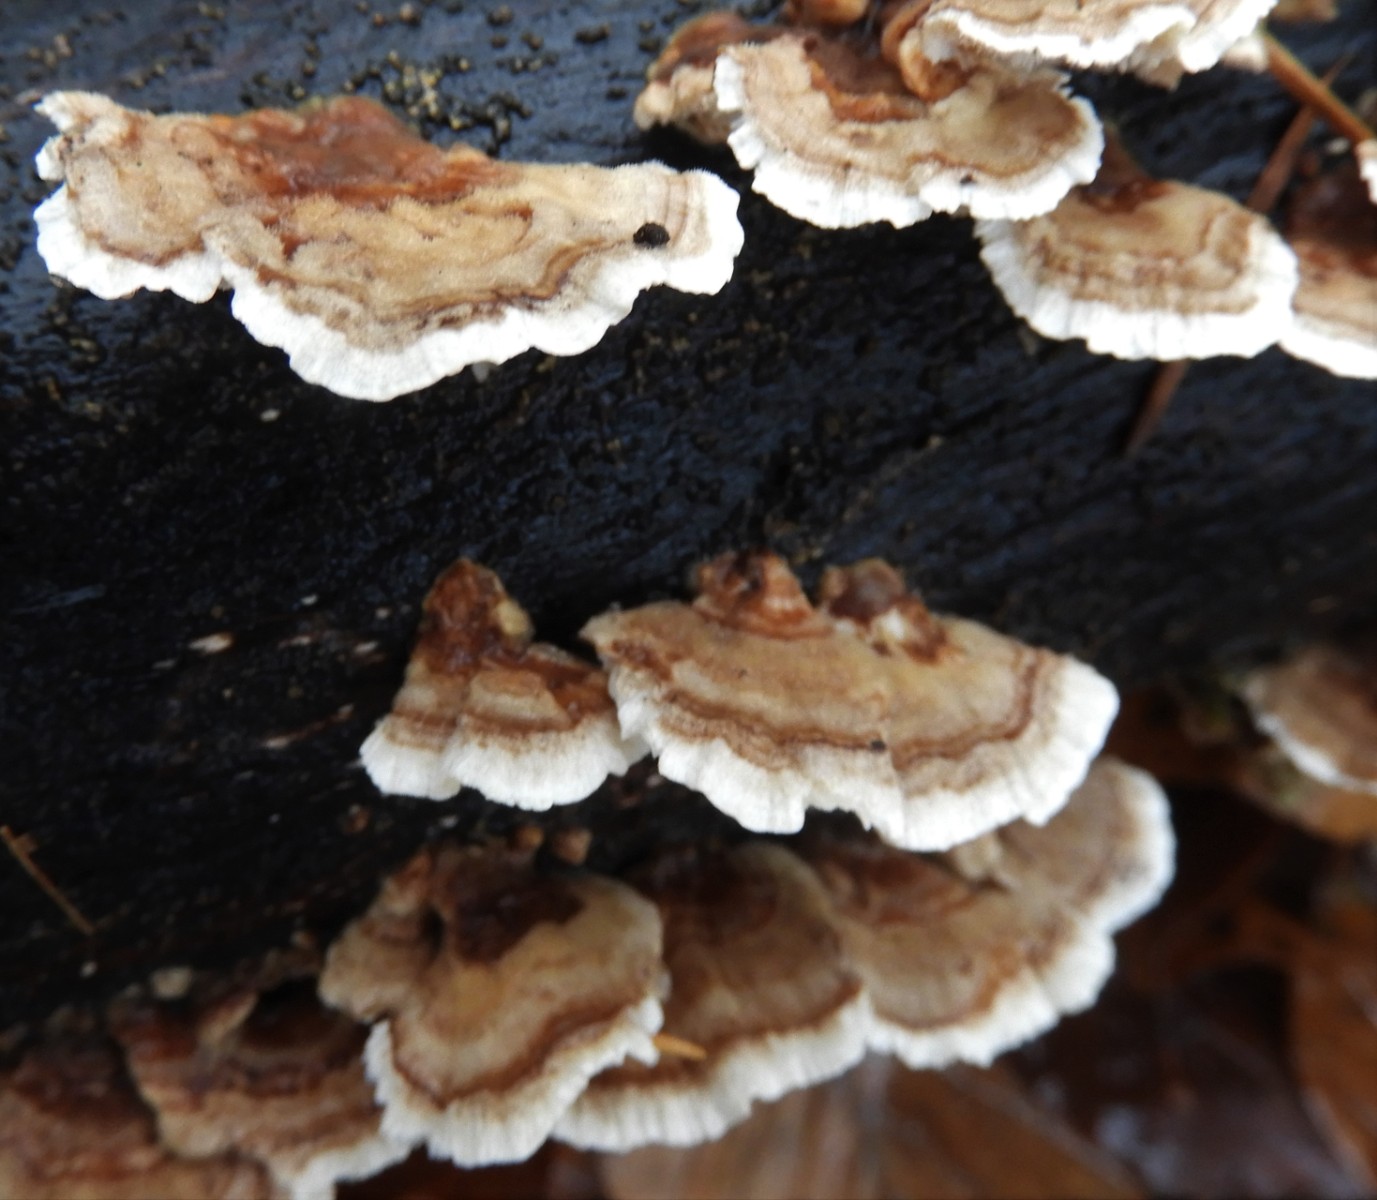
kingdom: Fungi
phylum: Basidiomycota
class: Agaricomycetes
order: Polyporales
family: Polyporaceae
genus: Trametes
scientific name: Trametes ochracea
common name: bæltet læderporesvamp
